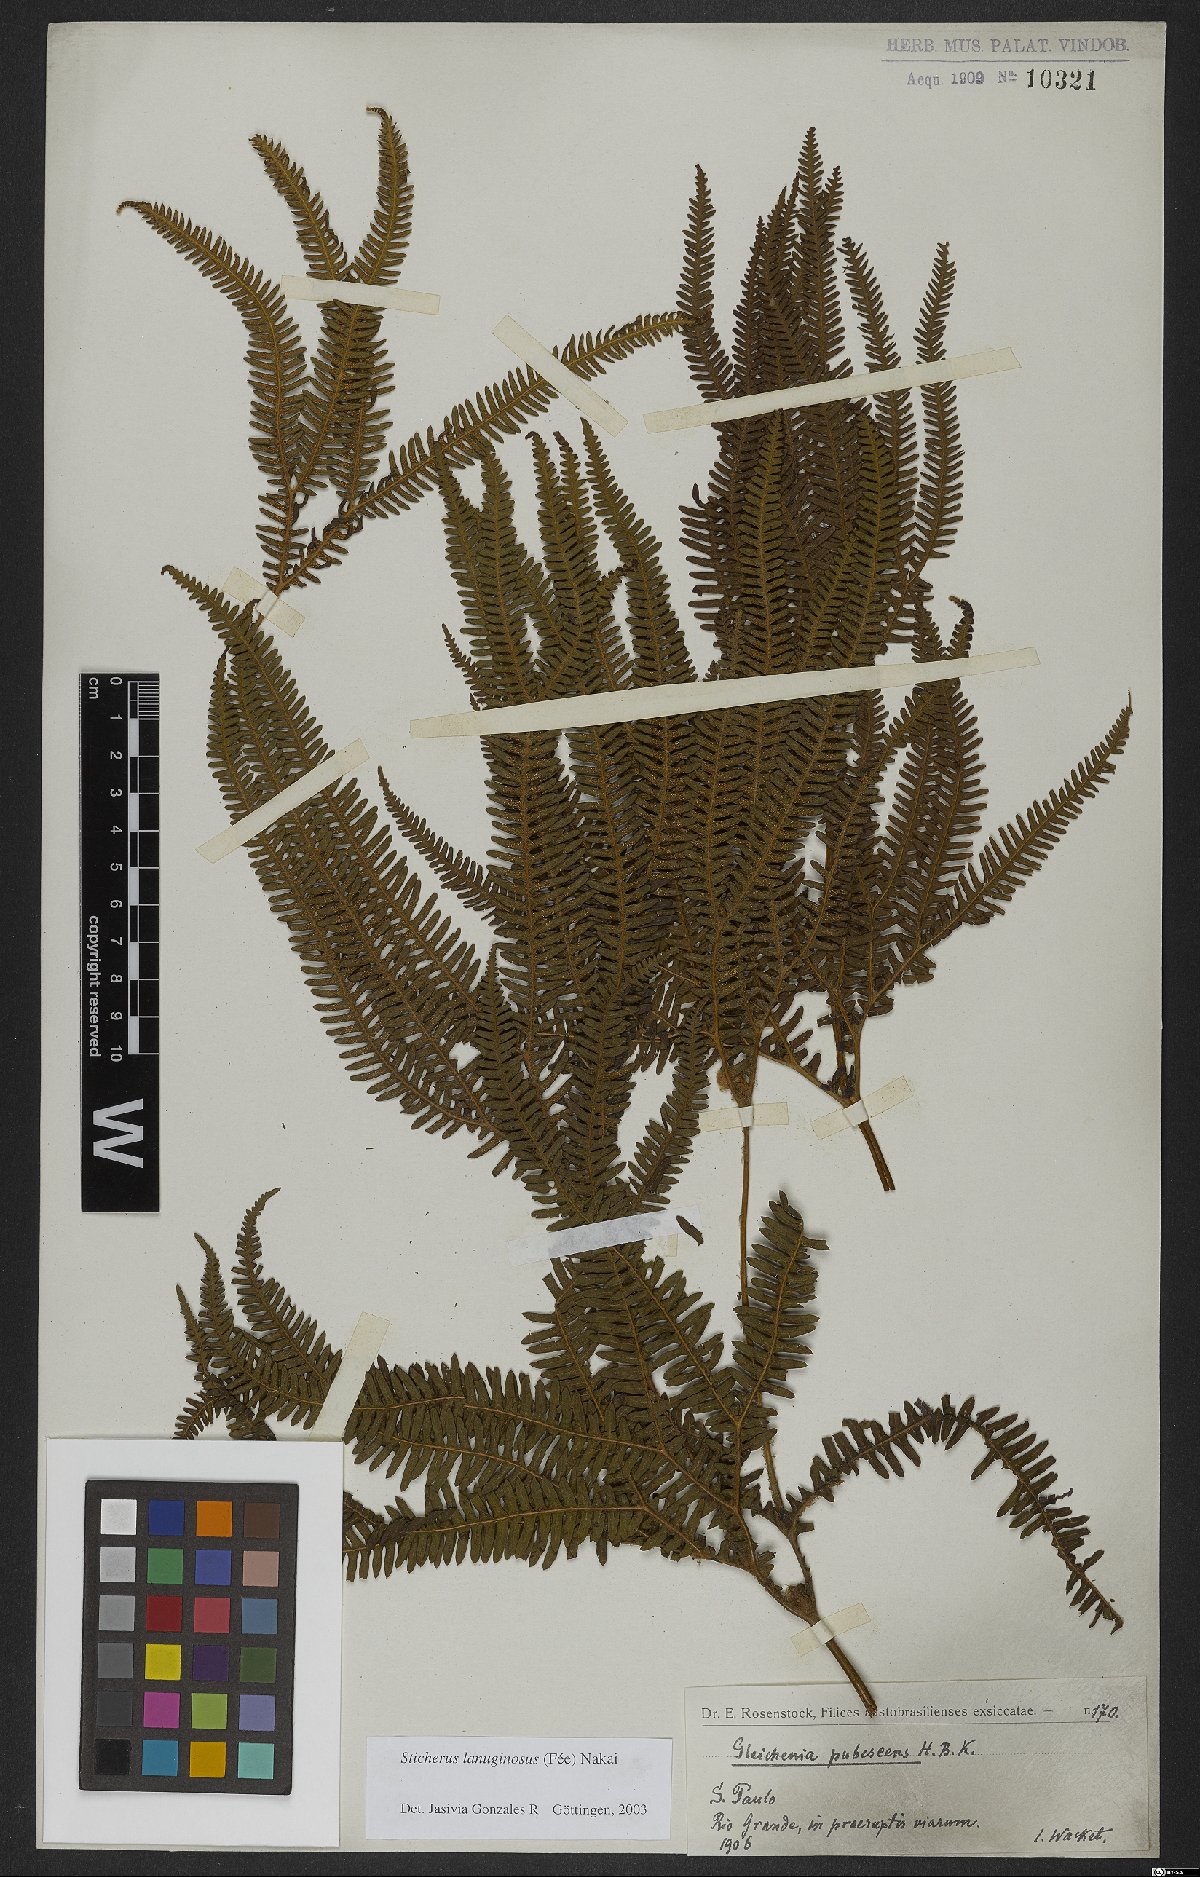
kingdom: Plantae
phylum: Tracheophyta
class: Polypodiopsida
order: Gleicheniales
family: Gleicheniaceae
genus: Sticherus
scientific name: Sticherus lanuginosus
